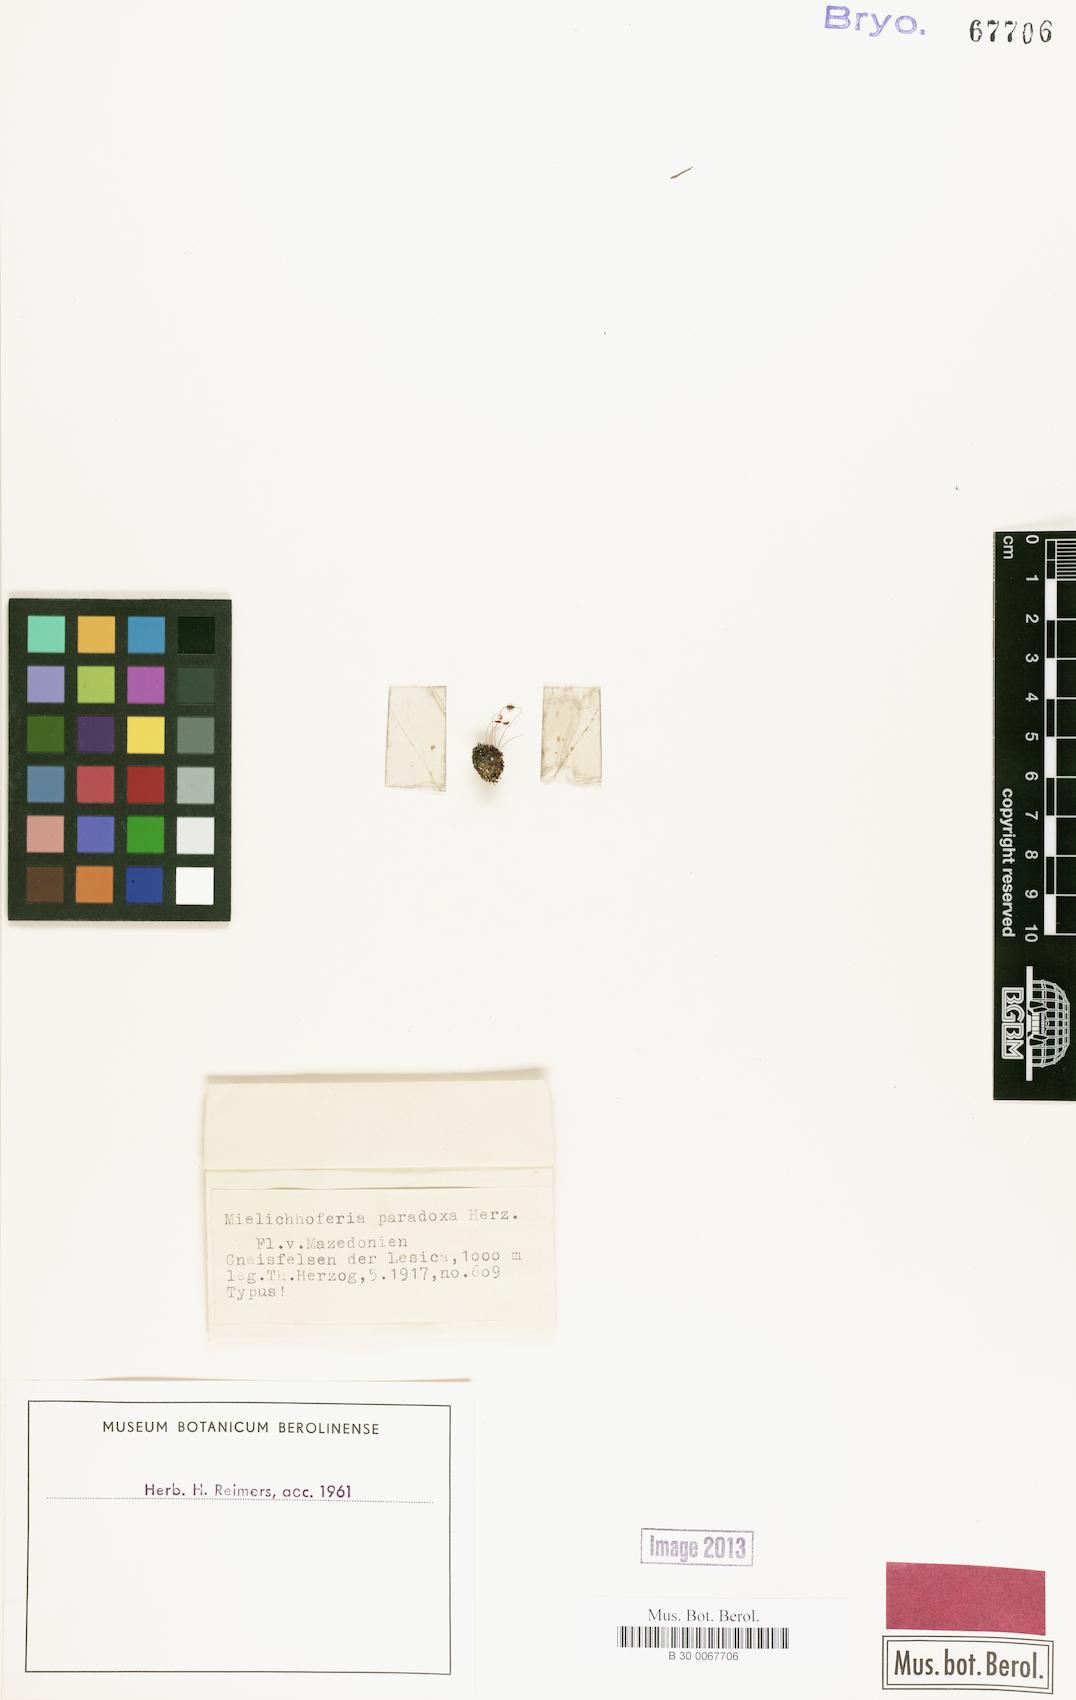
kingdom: Plantae
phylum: Bryophyta
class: Bryopsida
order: Bryales
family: Bryaceae
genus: Brachymenium
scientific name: Brachymenium paradoxum
